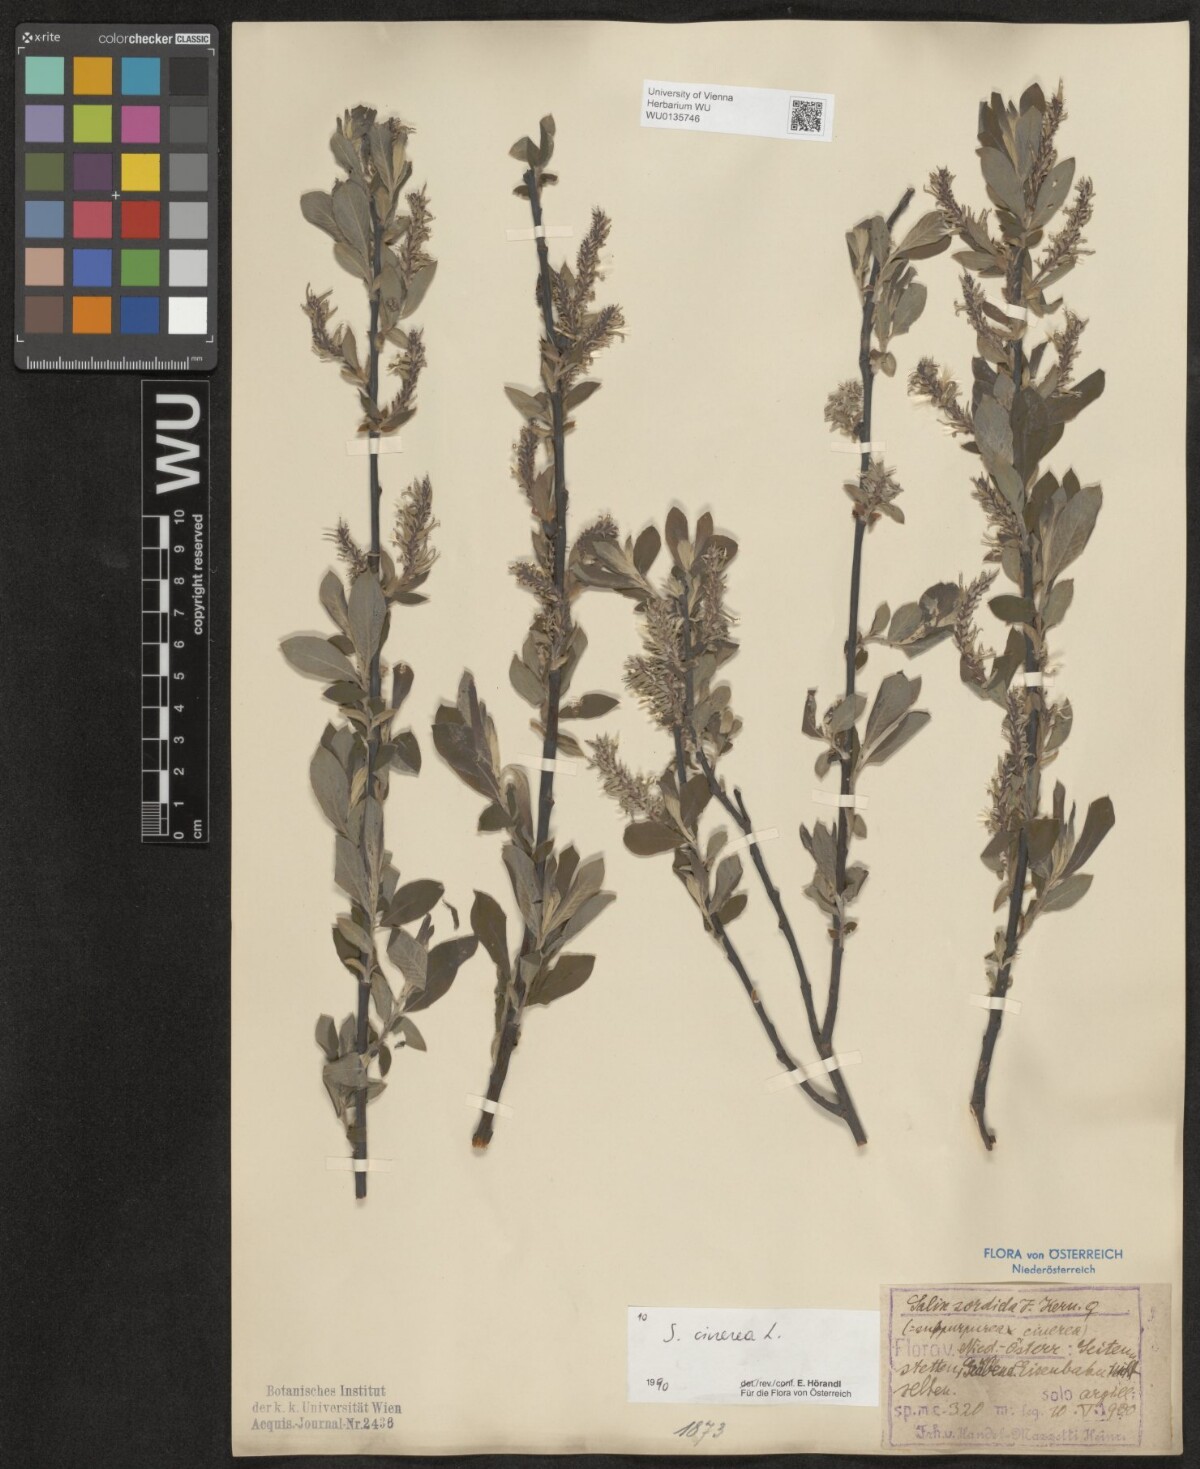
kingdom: Plantae
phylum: Tracheophyta
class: Magnoliopsida
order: Malpighiales
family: Salicaceae
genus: Salix
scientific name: Salix cinerea
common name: Common sallow
